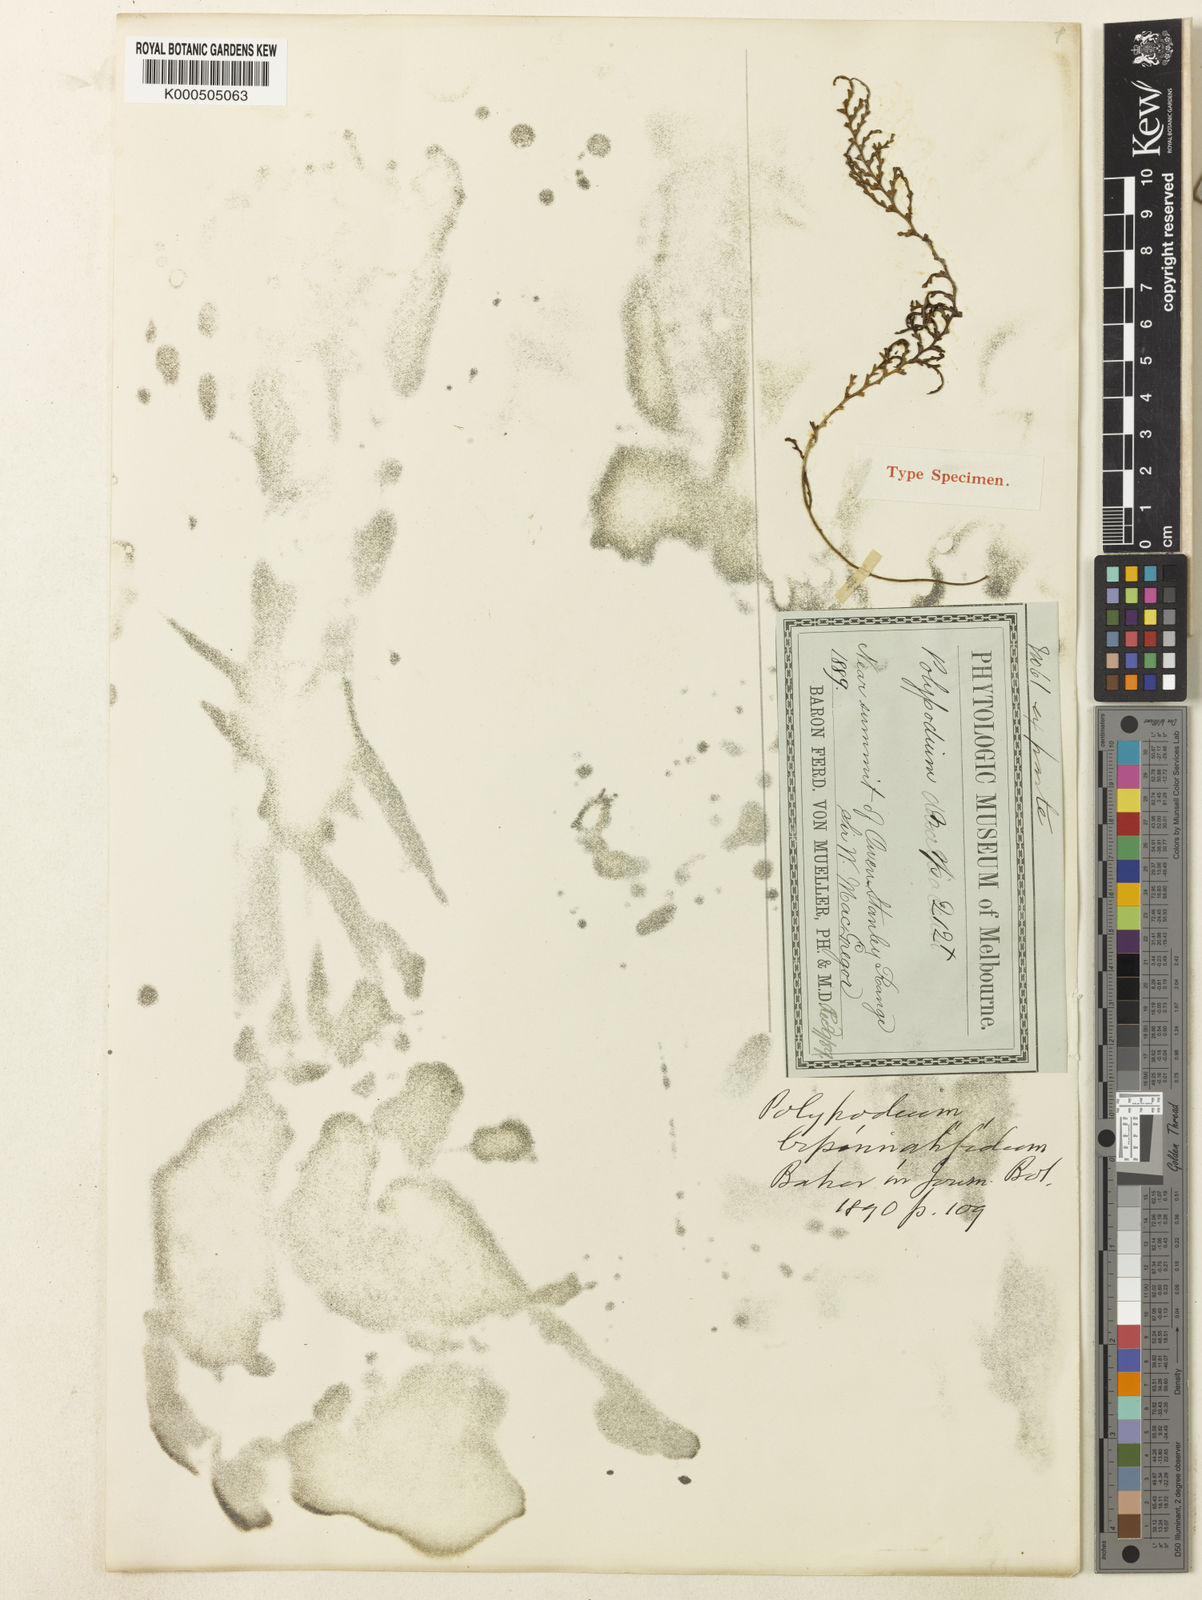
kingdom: Plantae
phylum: Tracheophyta
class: Polypodiopsida
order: Polypodiales
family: Polypodiaceae
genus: Tomophyllum
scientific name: Tomophyllum bipinnatifidum
